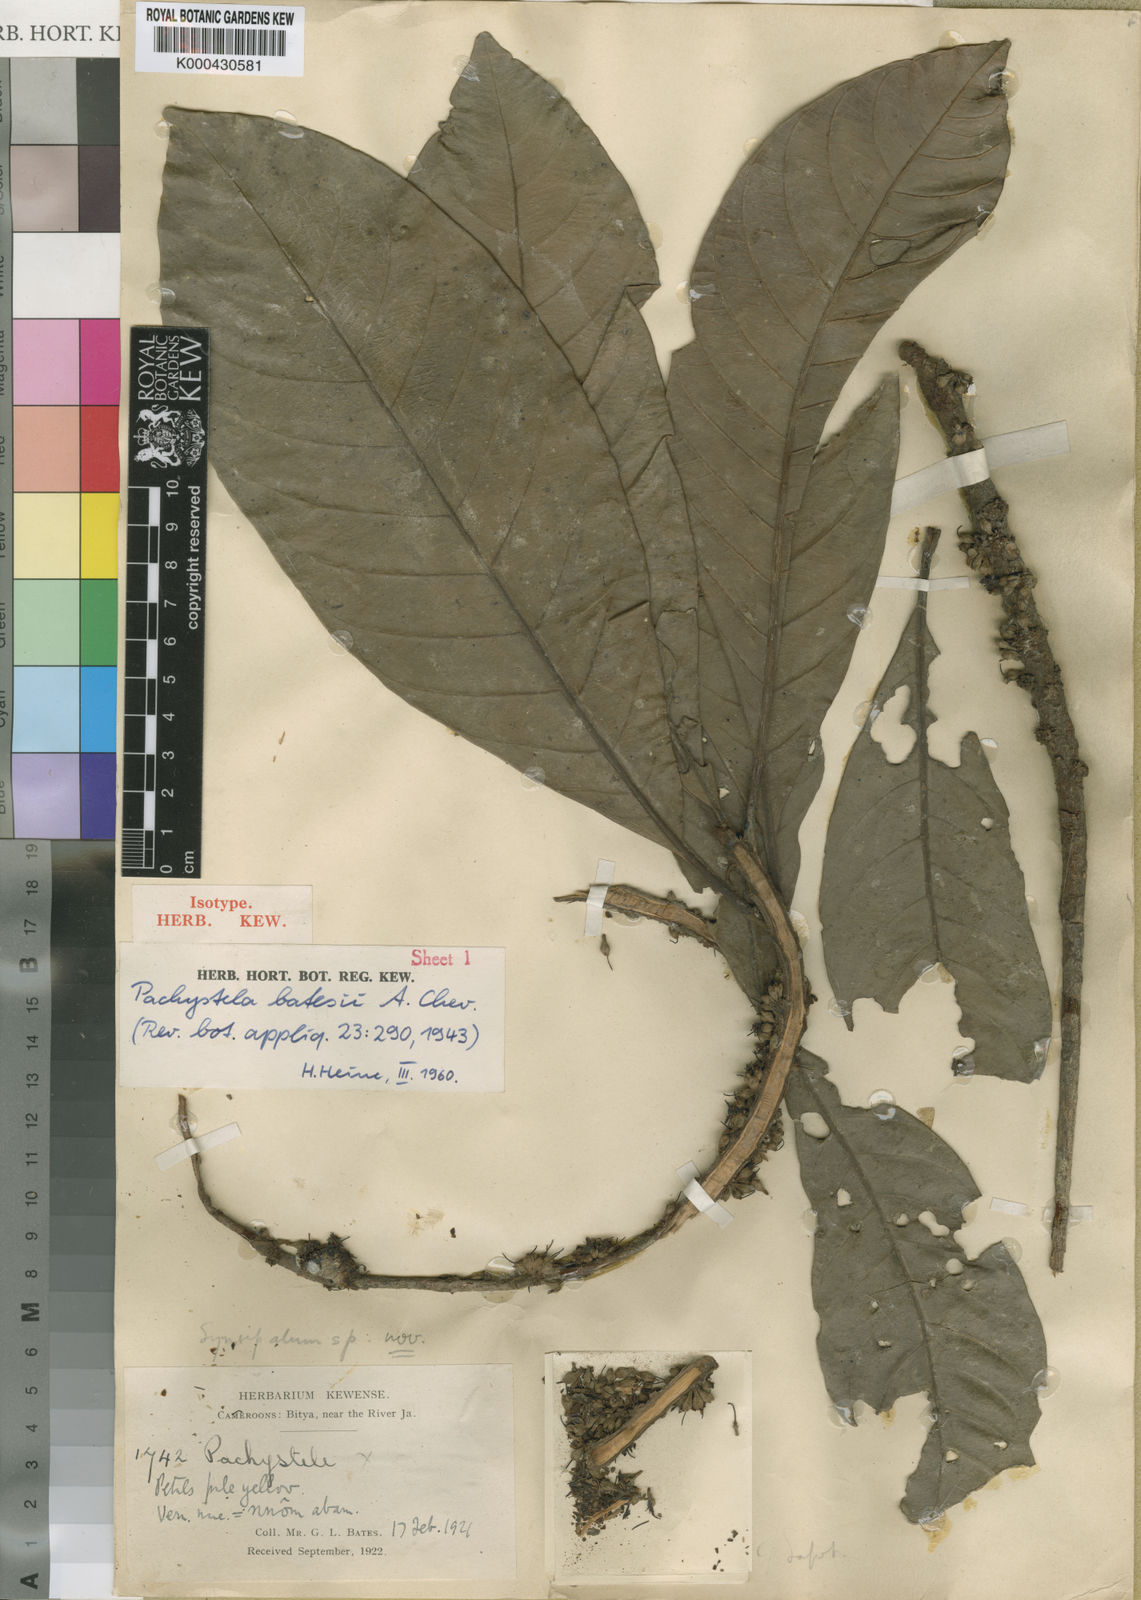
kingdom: Plantae
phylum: Tracheophyta
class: Magnoliopsida
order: Ericales
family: Sapotaceae
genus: Synsepalum
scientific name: Synsepalum
